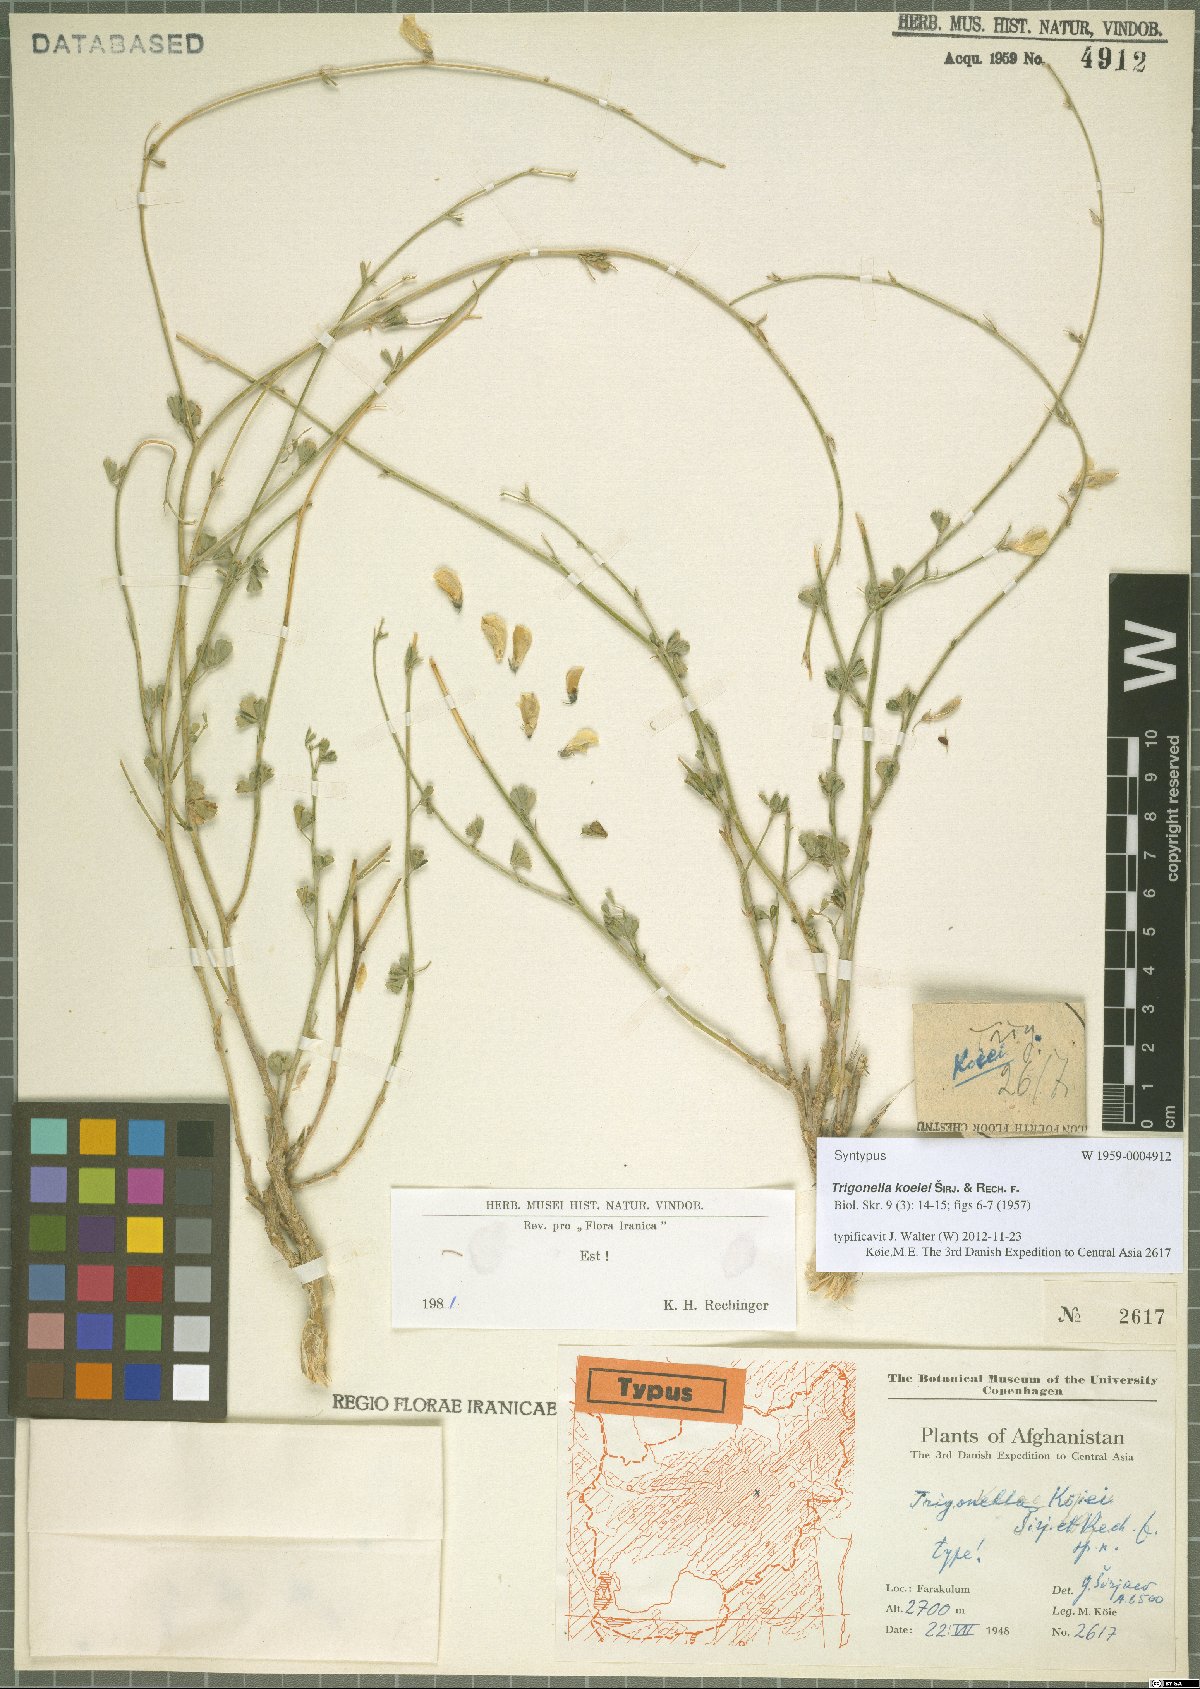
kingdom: Plantae
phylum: Tracheophyta
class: Magnoliopsida
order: Fabales
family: Fabaceae
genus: Trigonella
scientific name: Trigonella koeiei
